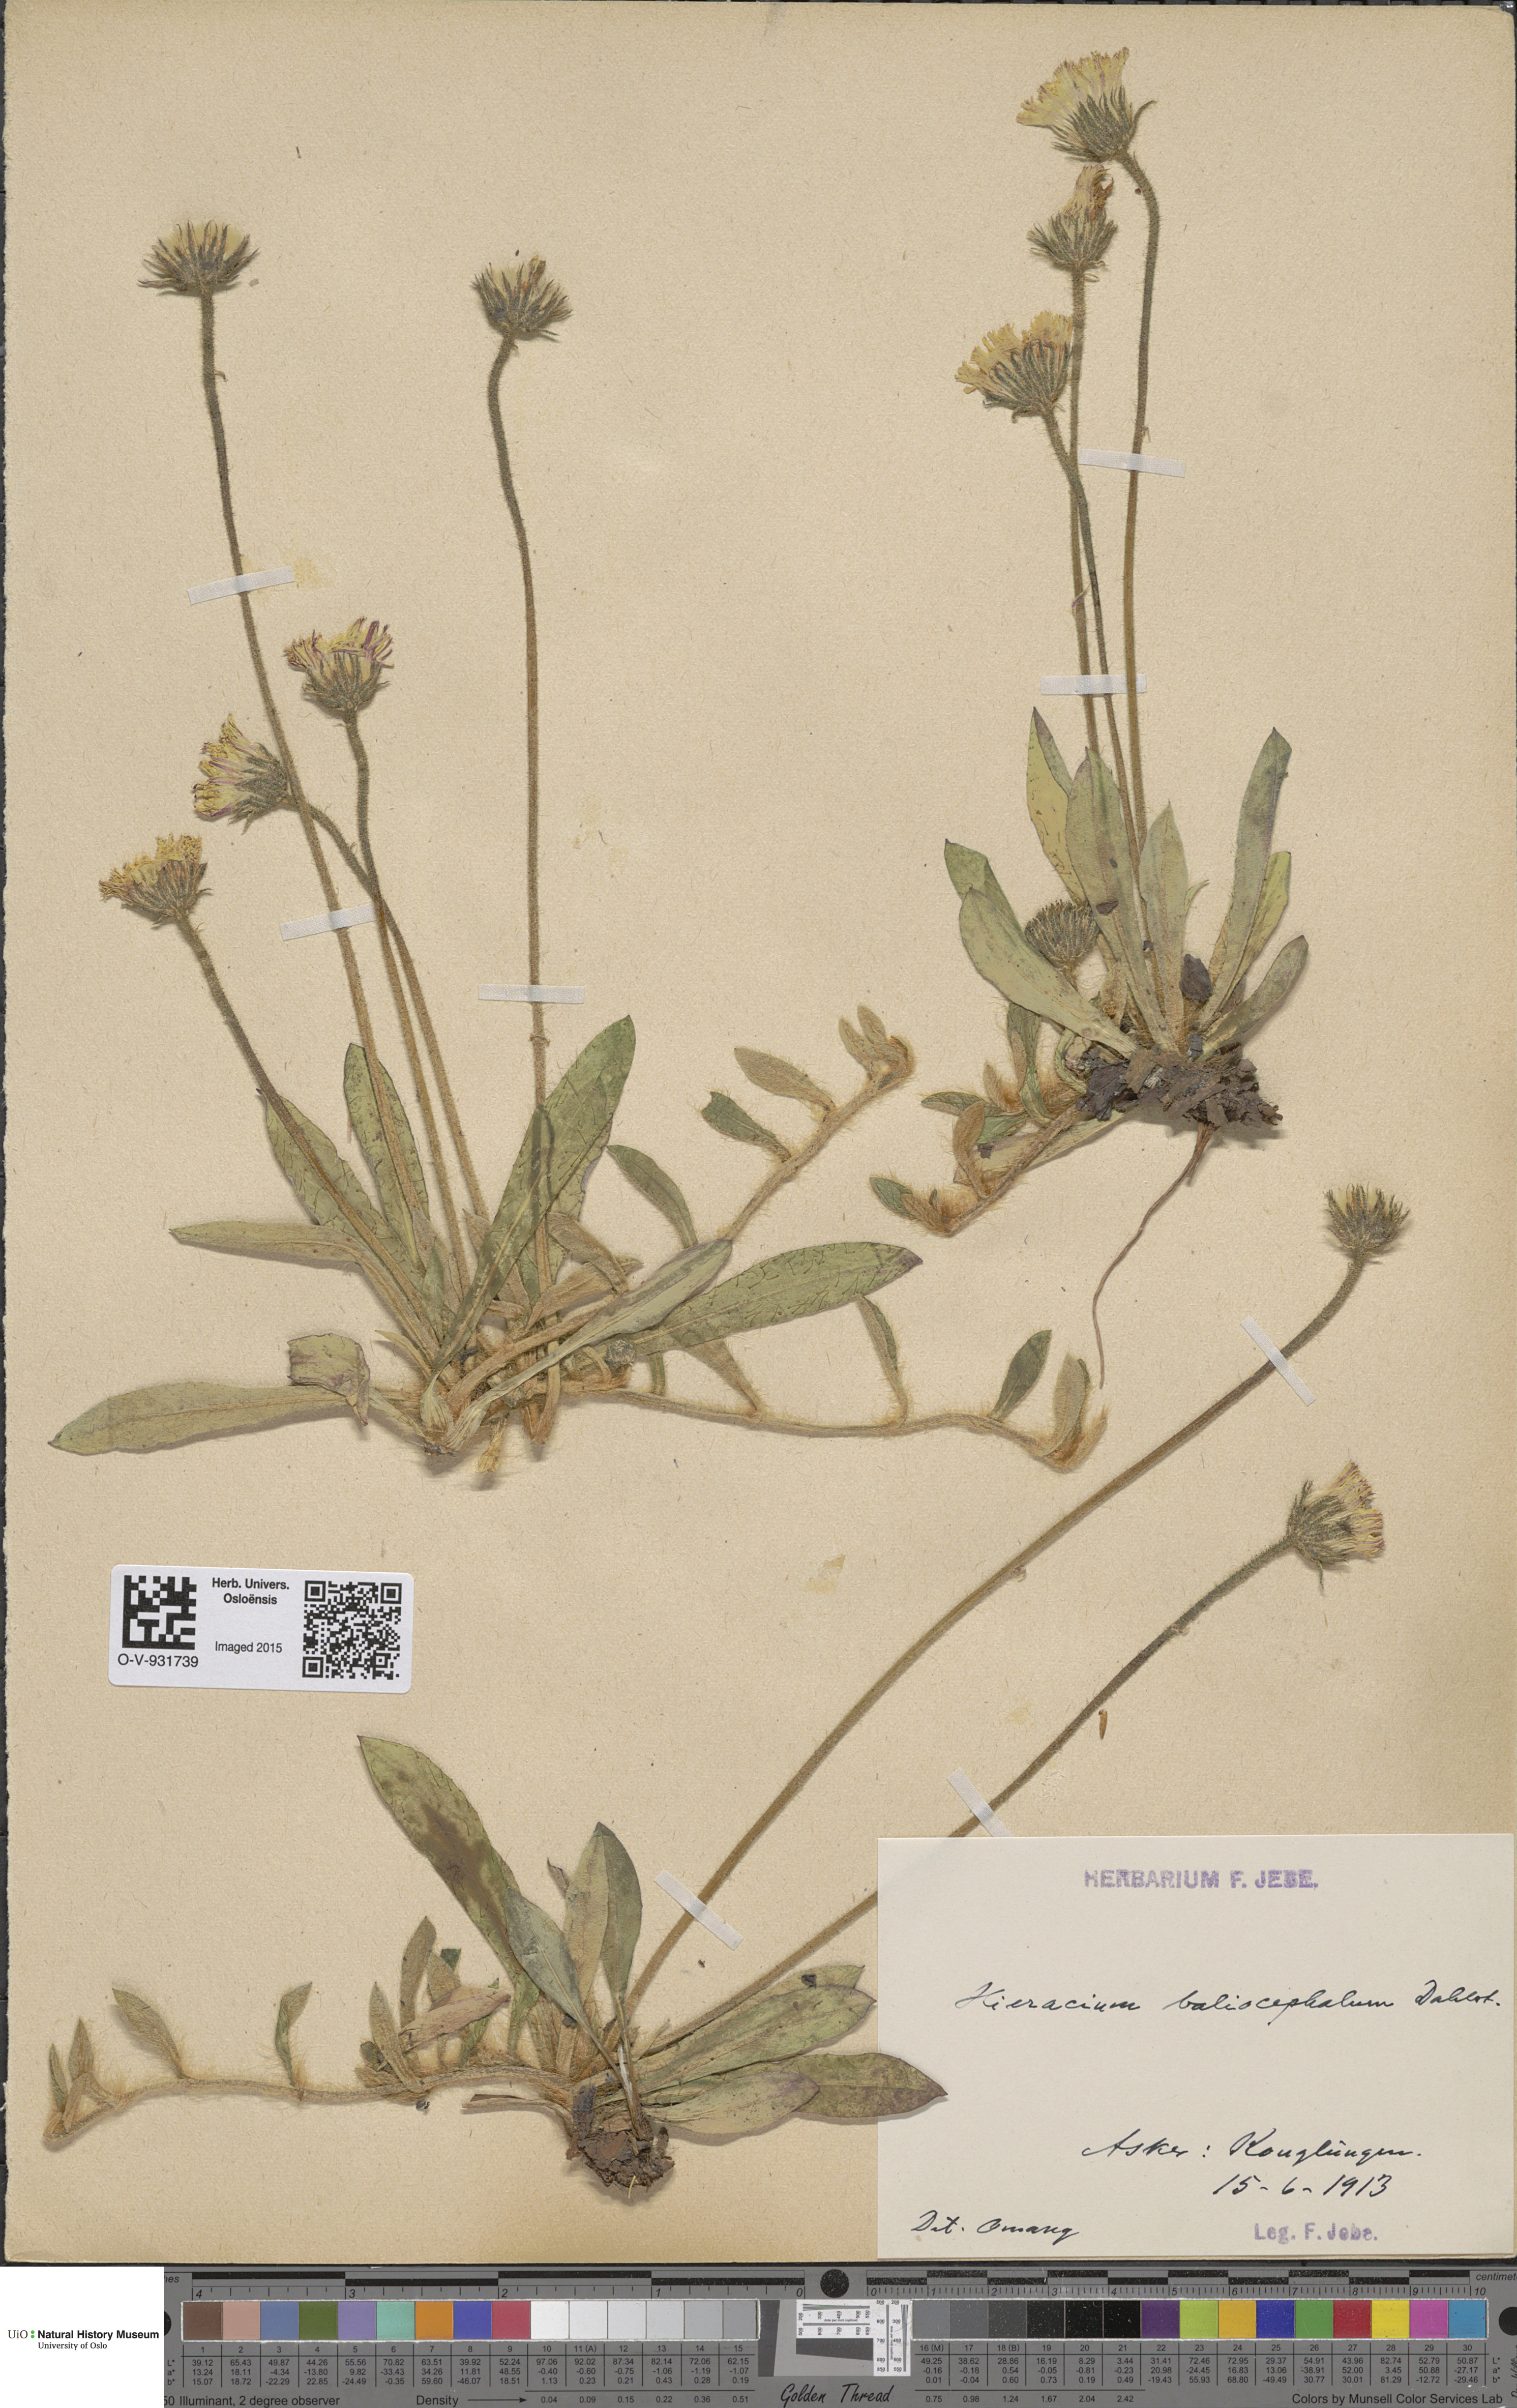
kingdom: Plantae
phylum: Tracheophyta
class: Magnoliopsida
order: Asterales
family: Asteraceae
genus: Hieracium
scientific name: Hieracium
